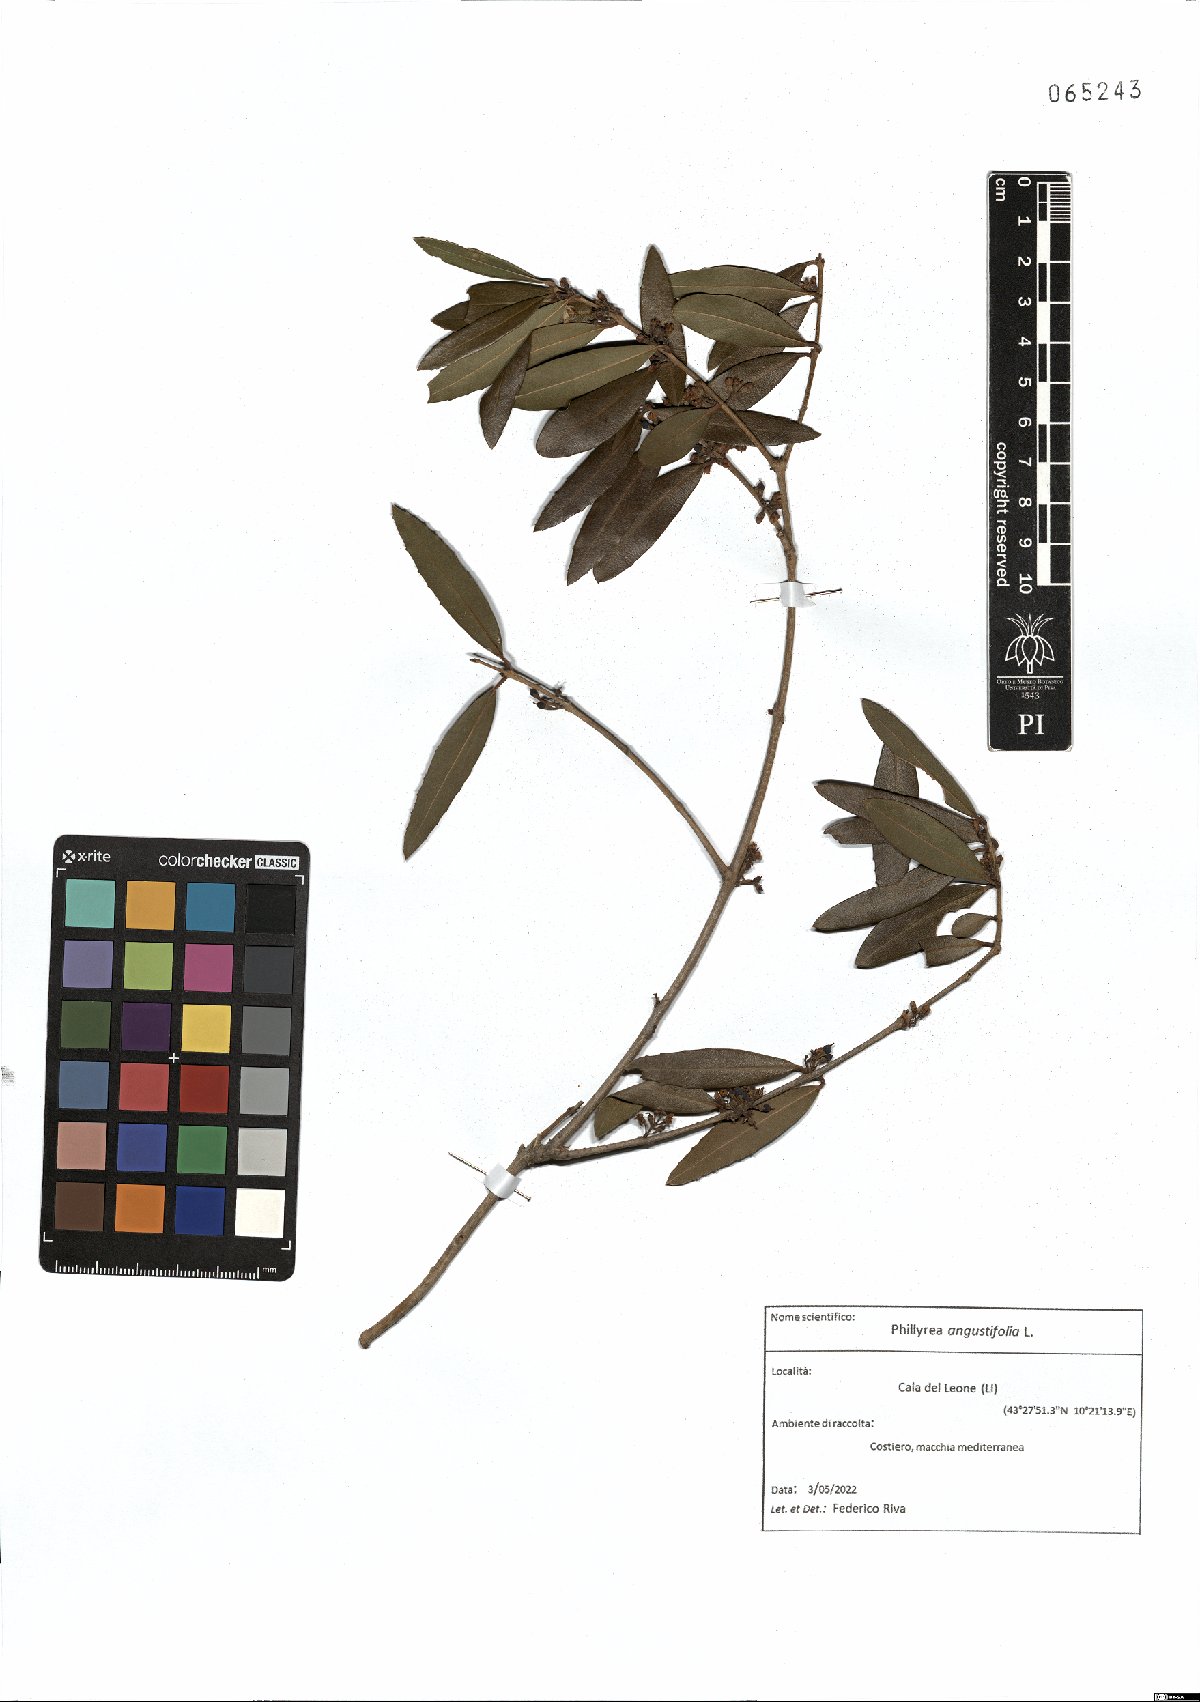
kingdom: Plantae
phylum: Tracheophyta
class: Magnoliopsida
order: Lamiales
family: Oleaceae
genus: Phillyrea
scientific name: Phillyrea angustifolia
